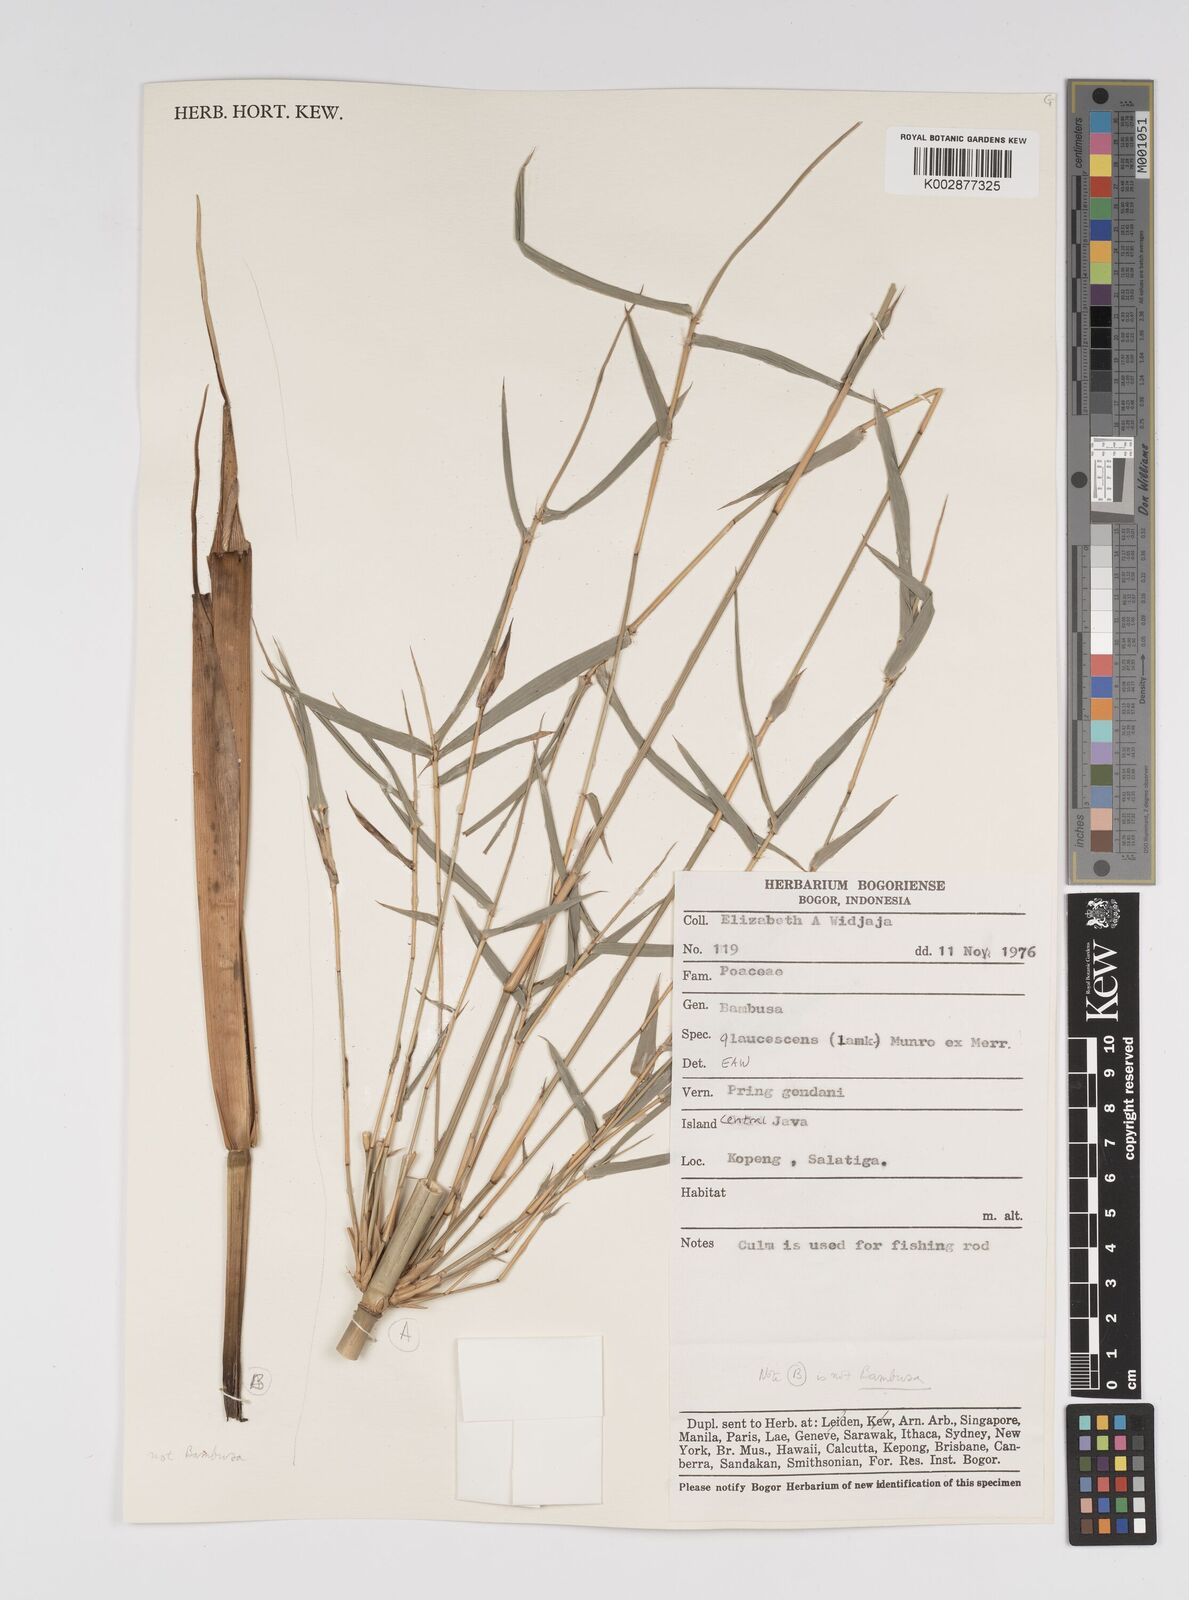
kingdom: Plantae
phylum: Tracheophyta
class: Liliopsida
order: Poales
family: Poaceae
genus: Bambusa
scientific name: Bambusa
